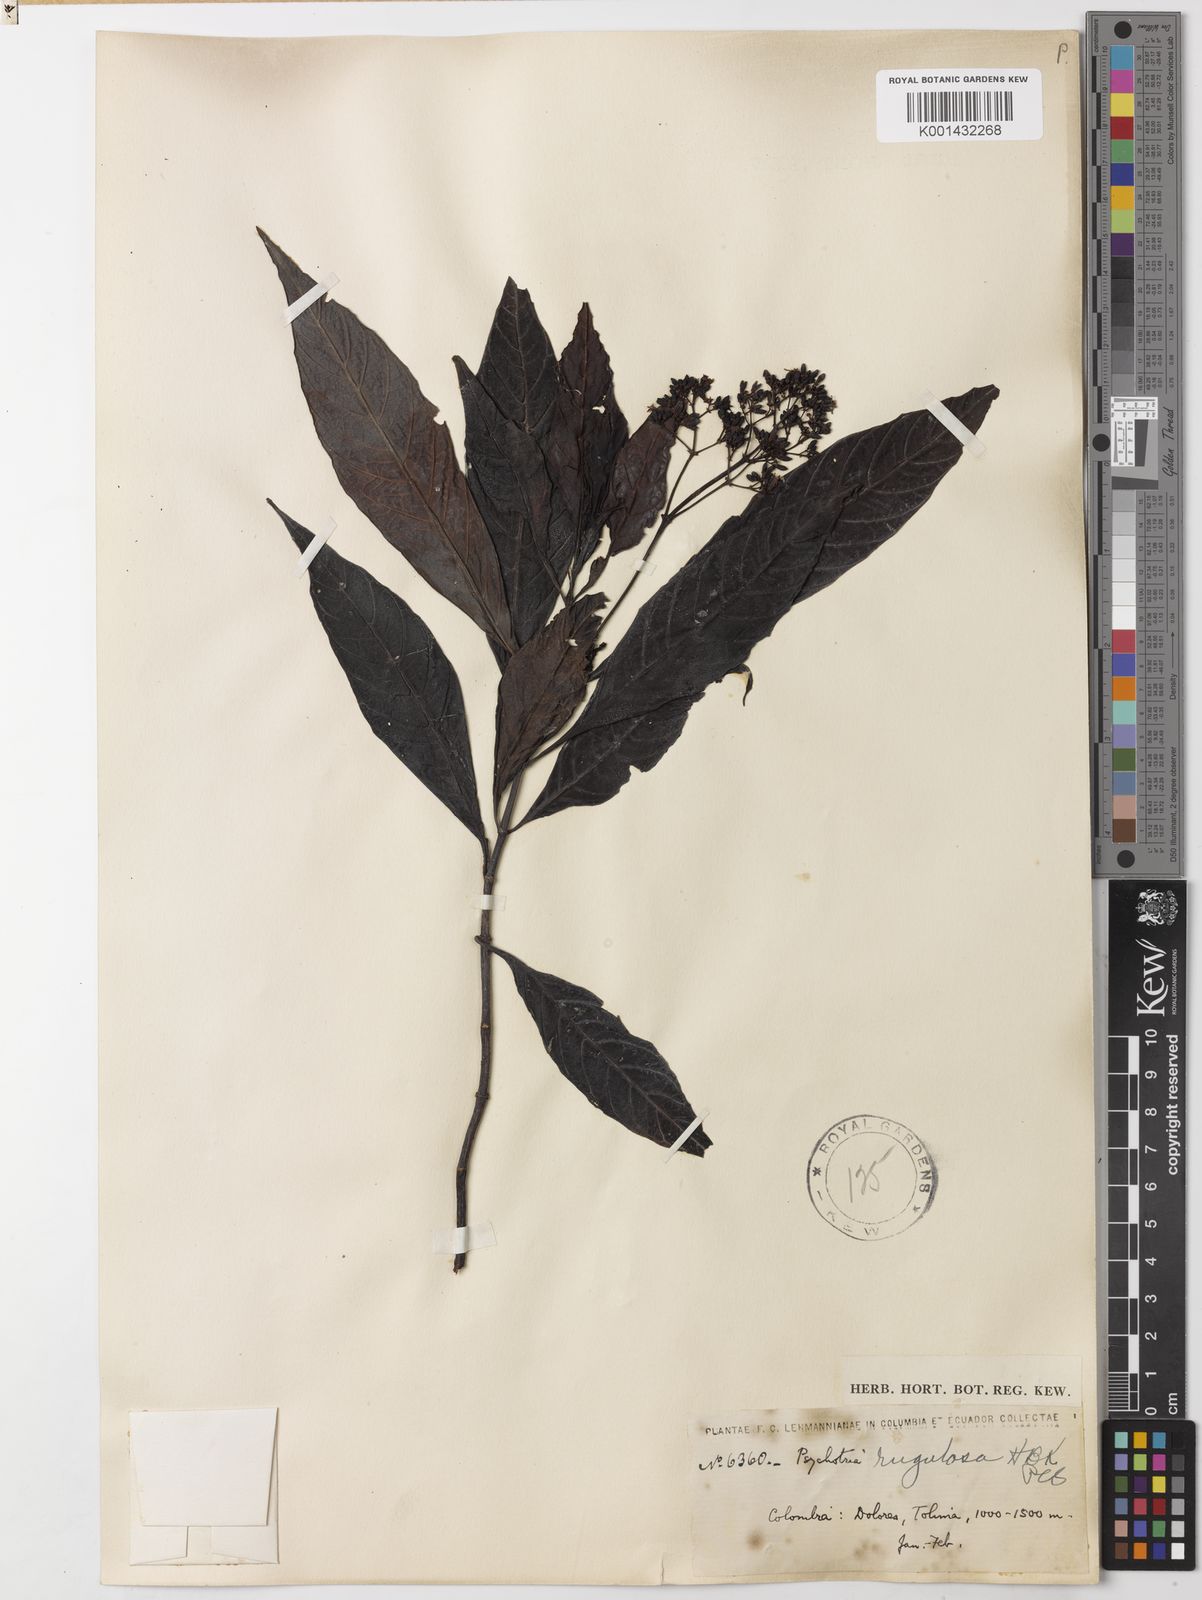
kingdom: Plantae
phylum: Tracheophyta
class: Magnoliopsida
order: Gentianales
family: Rubiaceae
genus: Psychotria
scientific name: Psychotria rugulosa
